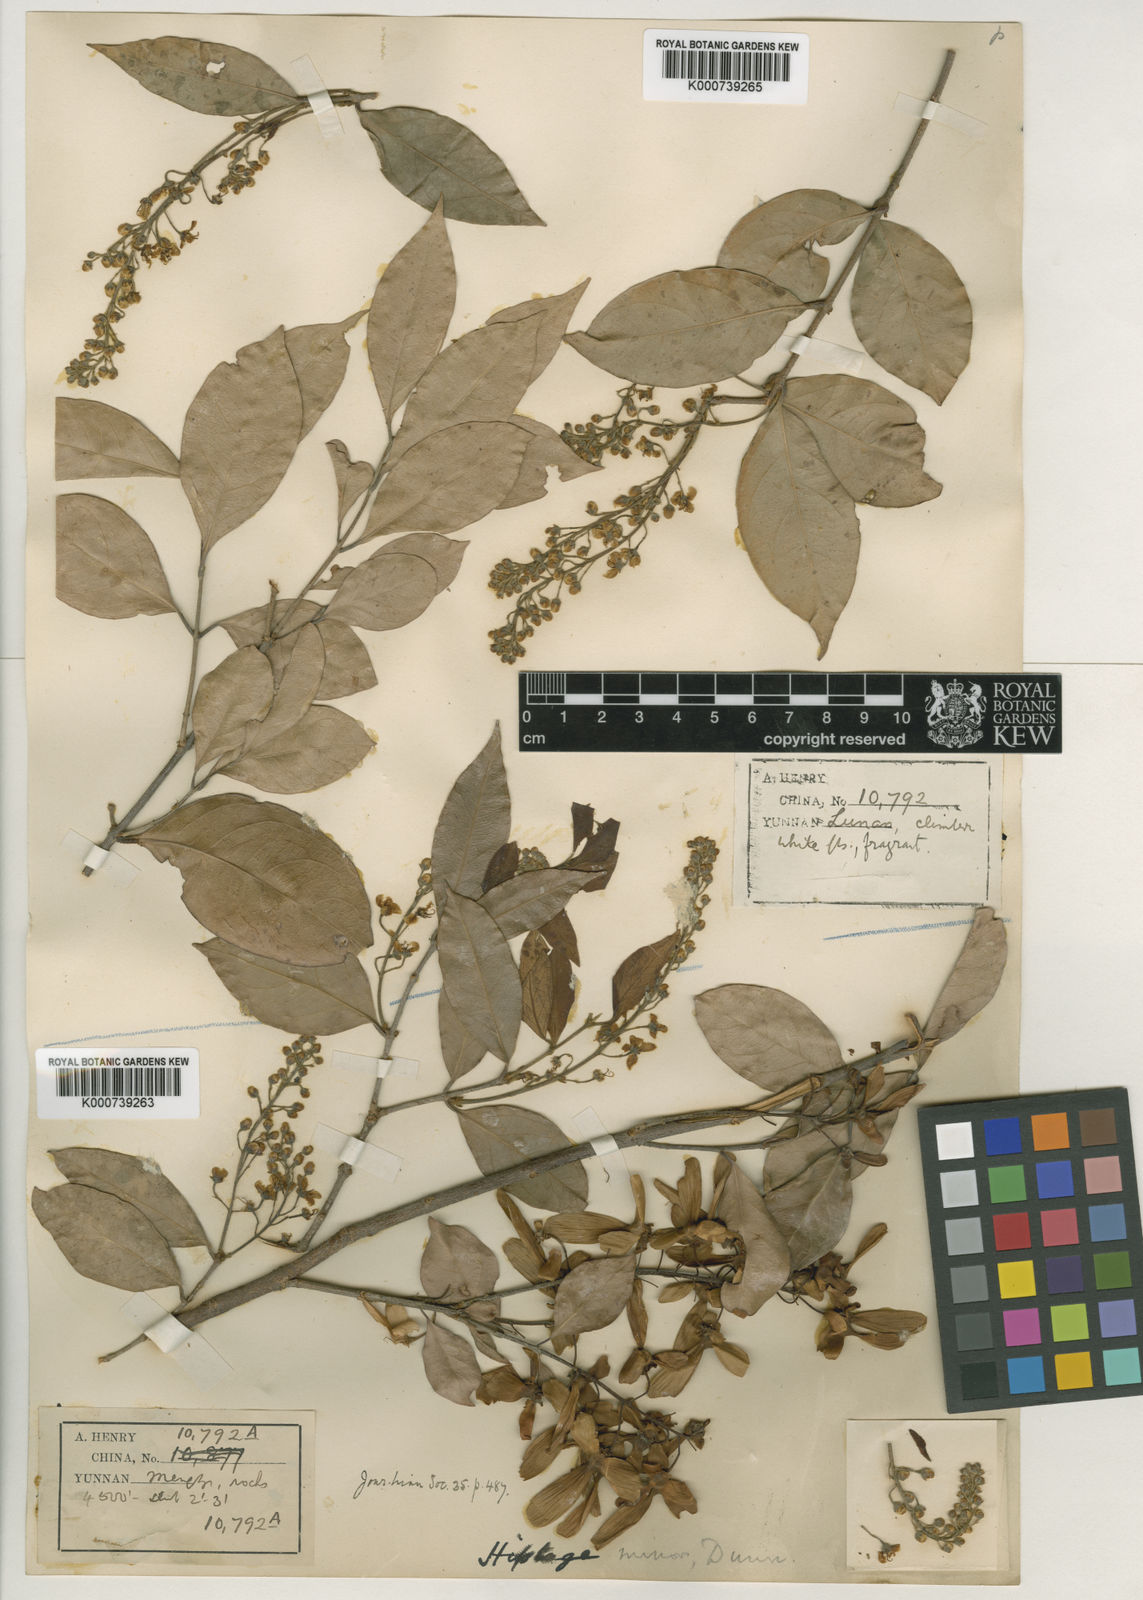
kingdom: Plantae
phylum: Tracheophyta
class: Magnoliopsida
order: Malpighiales
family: Malpighiaceae
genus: Hiptage
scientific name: Hiptage minor
